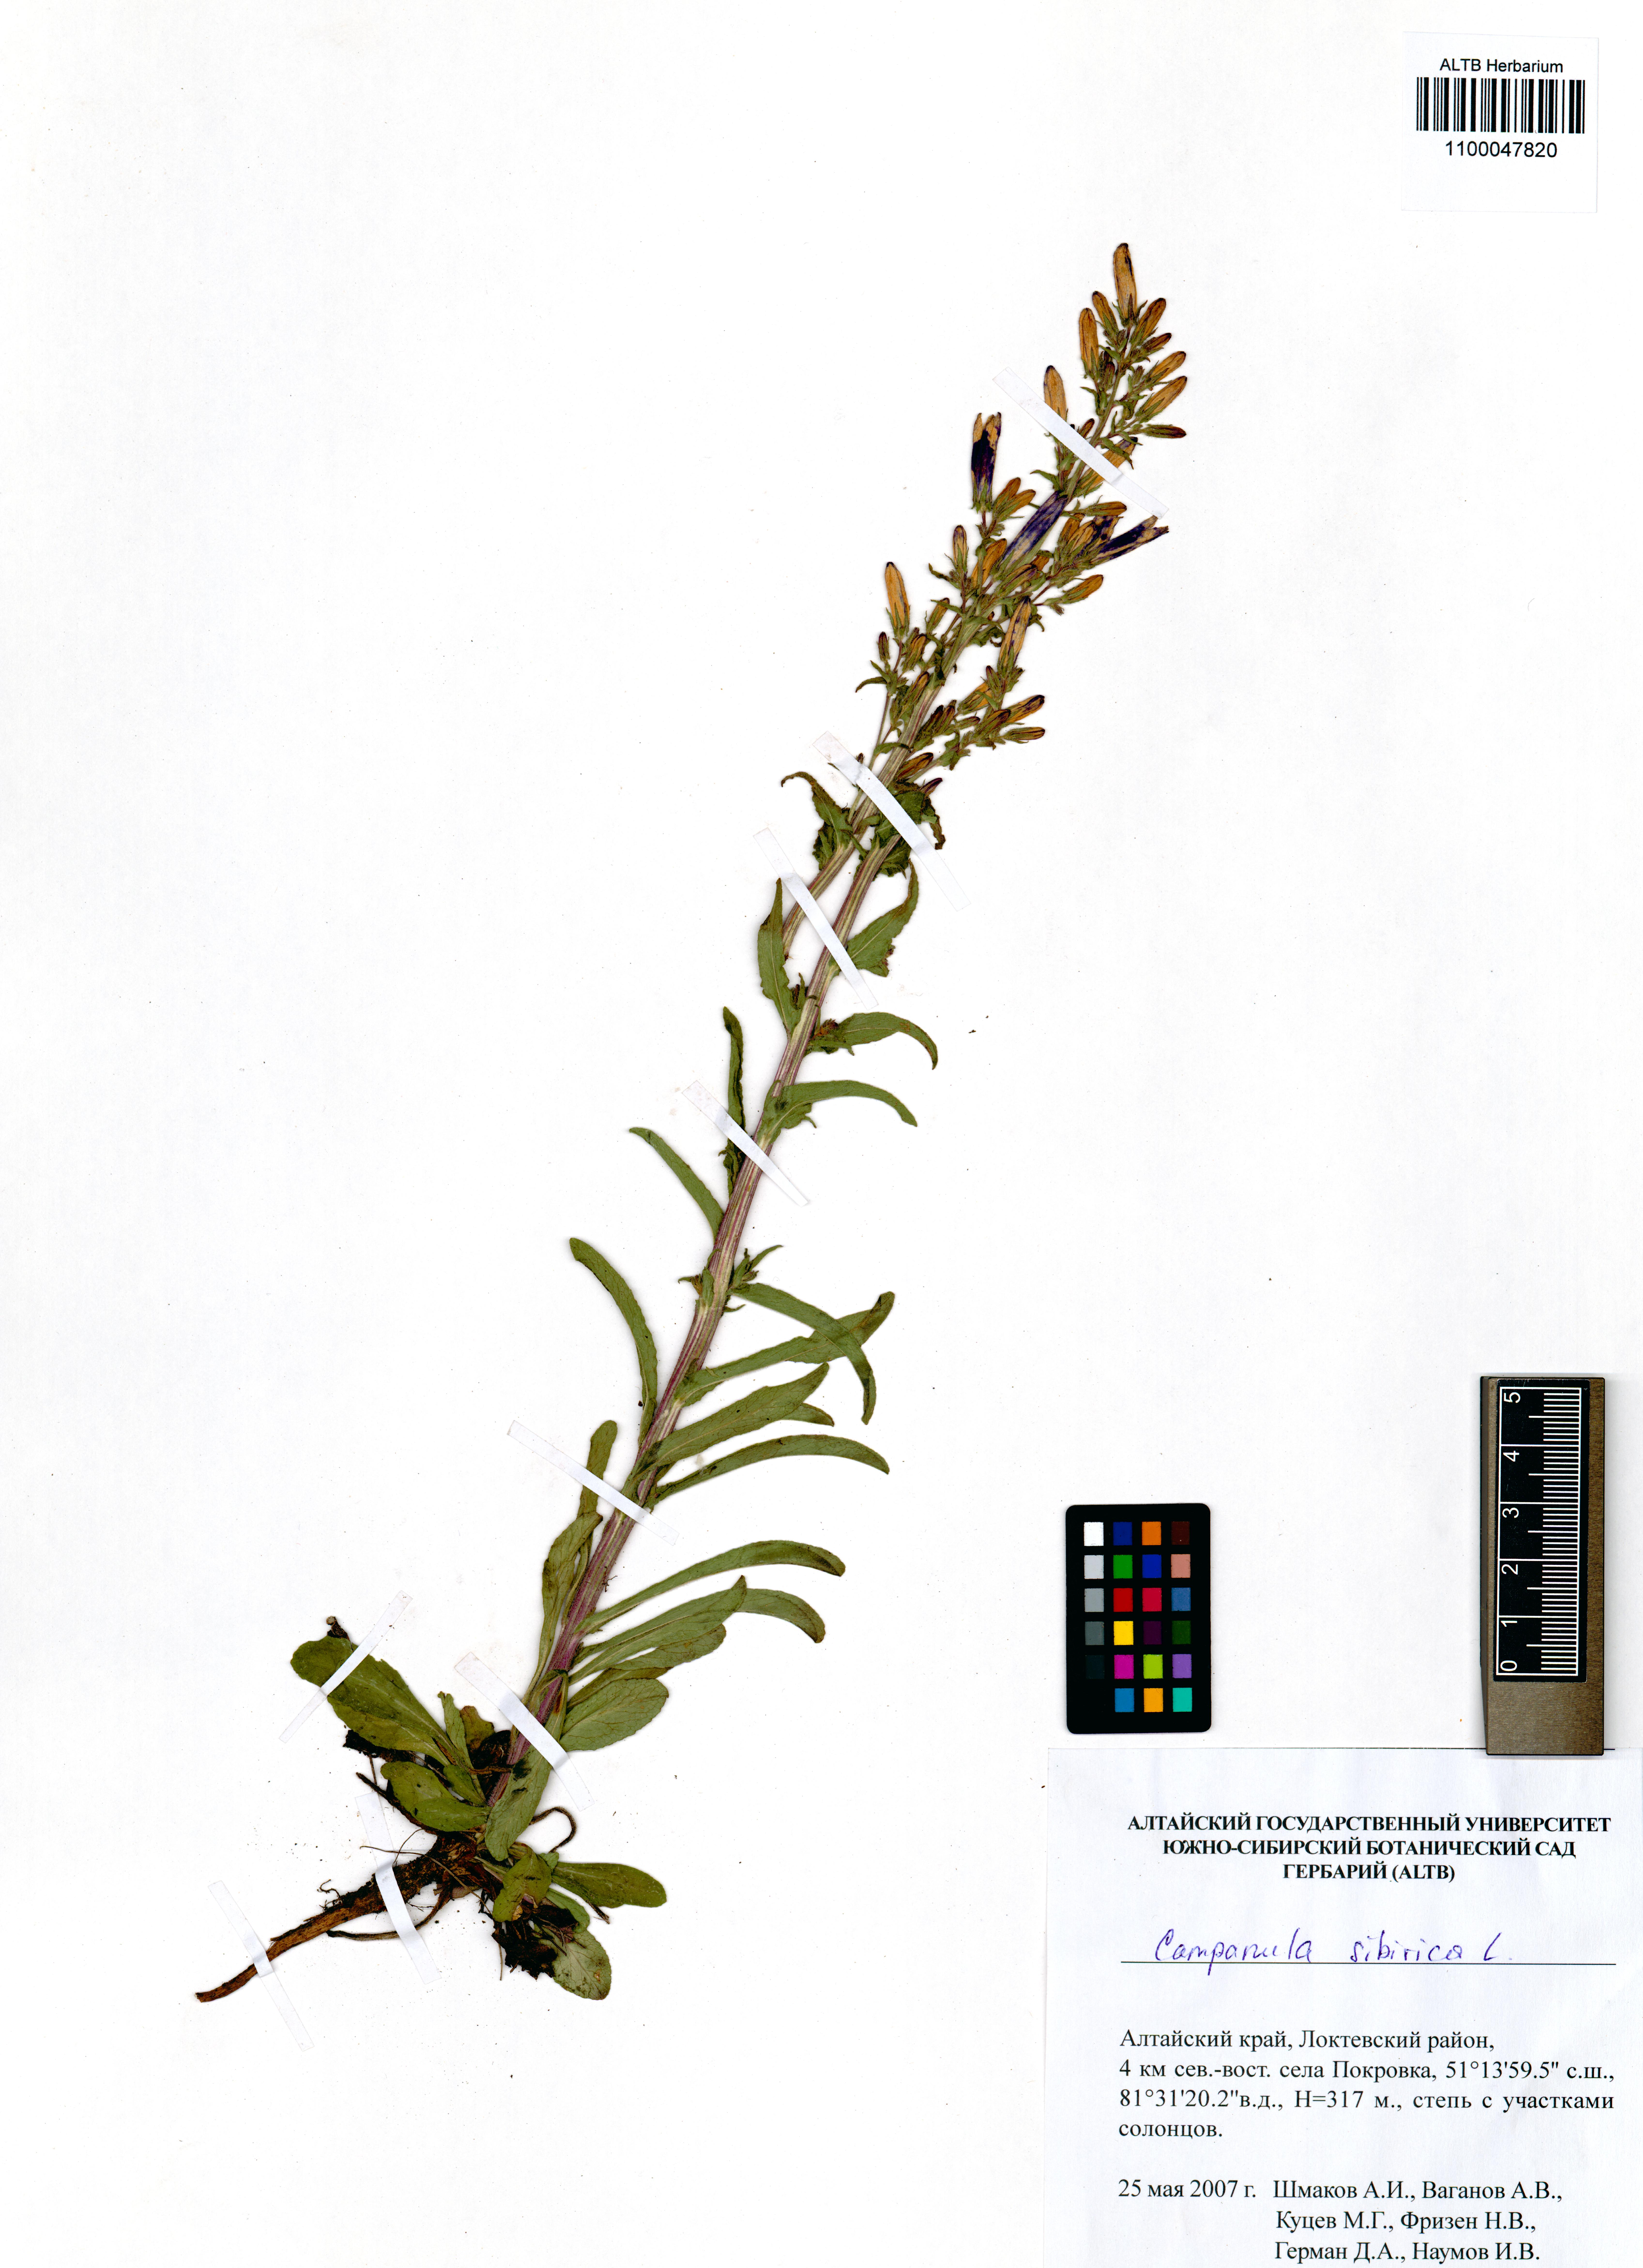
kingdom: Plantae
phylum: Tracheophyta
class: Magnoliopsida
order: Asterales
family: Campanulaceae
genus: Campanula
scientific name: Campanula sibirica
